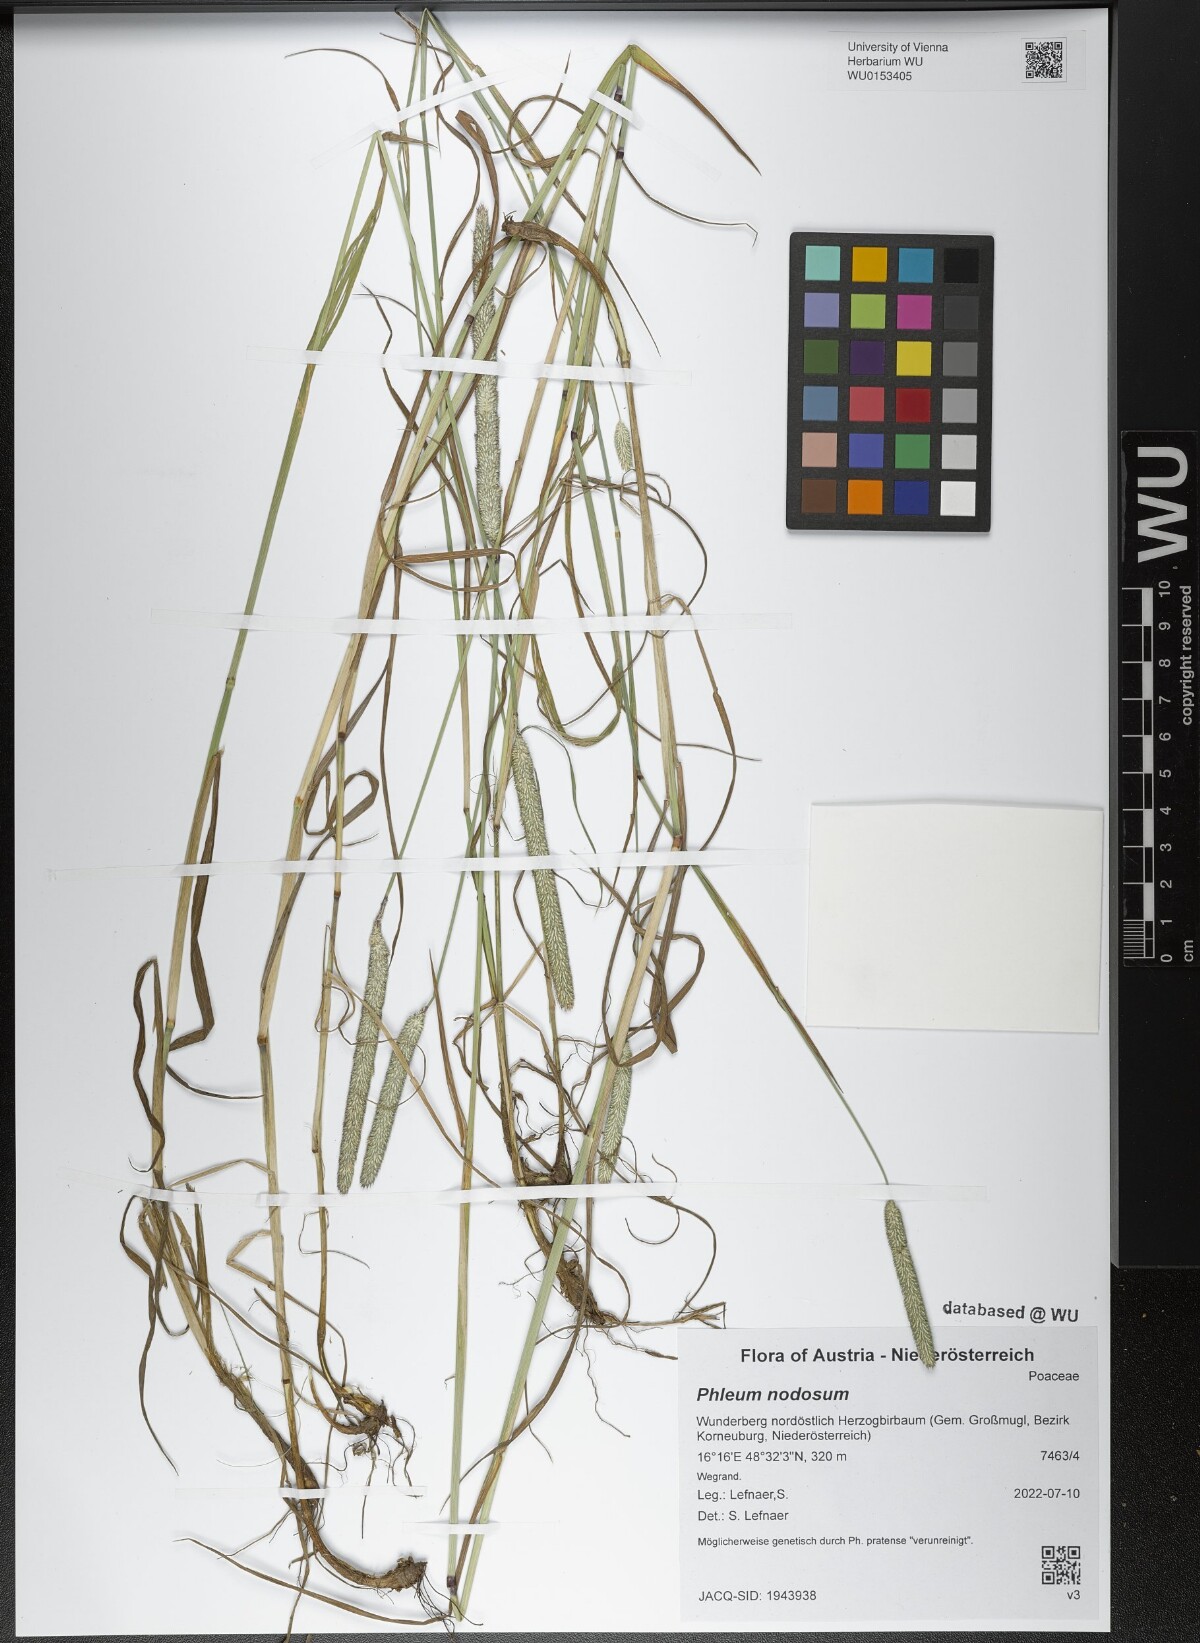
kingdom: Plantae
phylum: Tracheophyta
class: Liliopsida
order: Poales
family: Poaceae
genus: Phleum
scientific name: Phleum pratense
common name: Timothy grass
